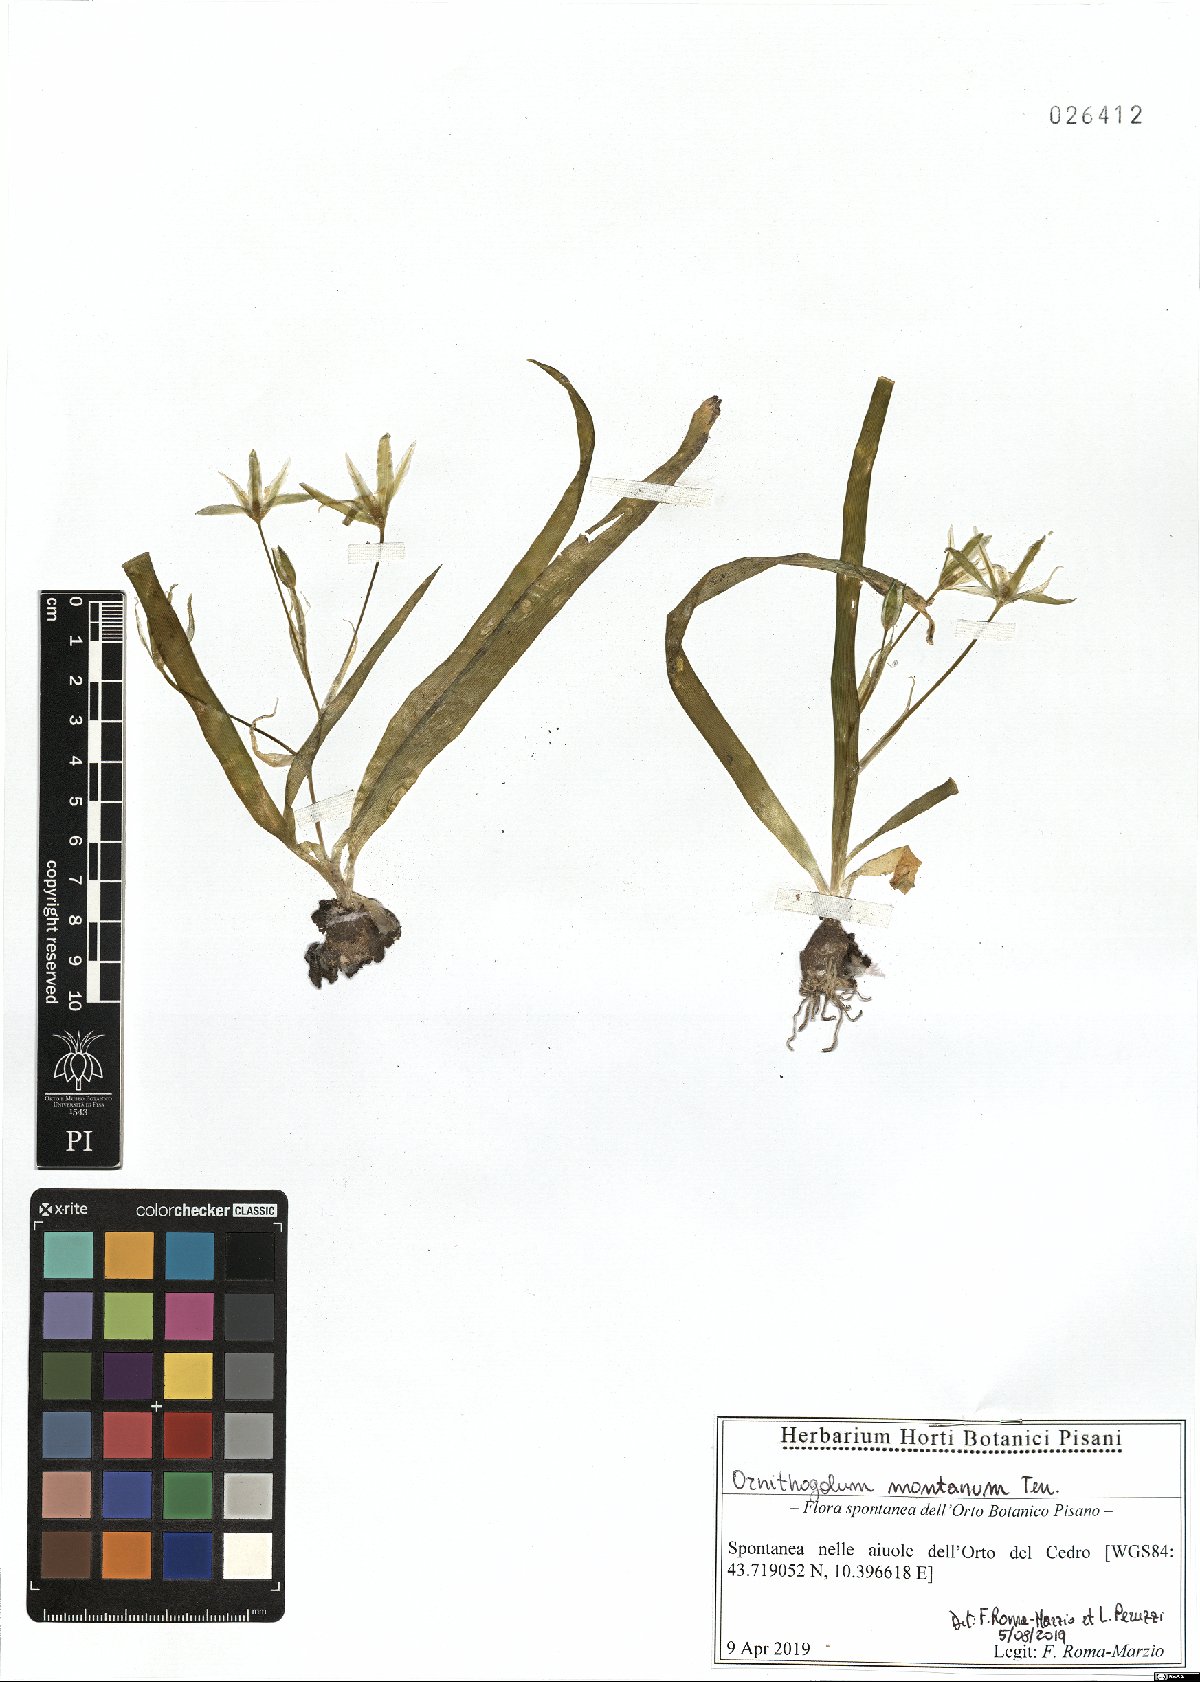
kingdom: Plantae
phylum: Tracheophyta
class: Liliopsida
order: Asparagales
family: Asparagaceae
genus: Ornithogalum
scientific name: Ornithogalum montanum
